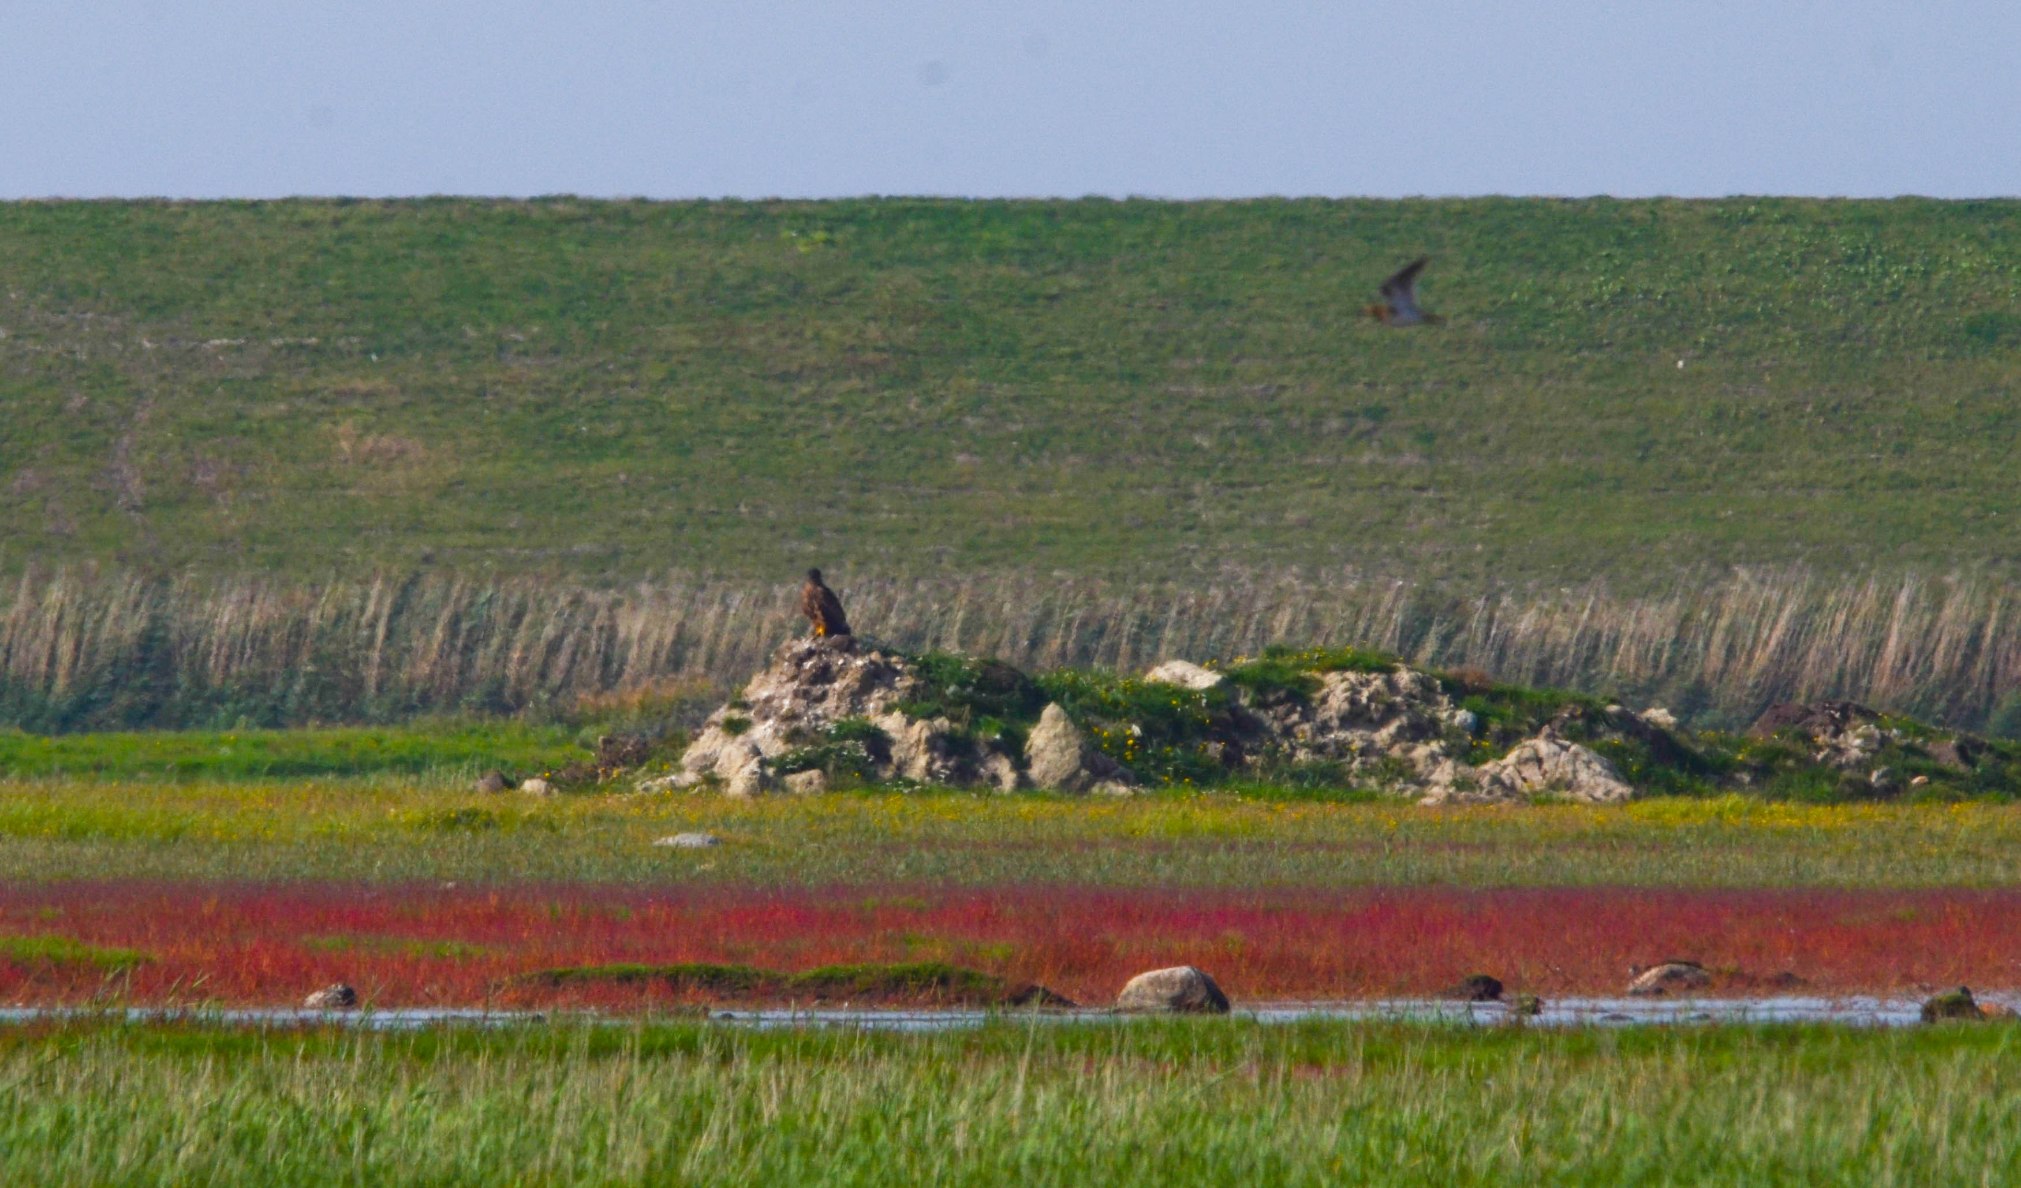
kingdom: Animalia
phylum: Chordata
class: Aves
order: Accipitriformes
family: Accipitridae
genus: Haliaeetus
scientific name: Haliaeetus albicilla
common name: Havørn
